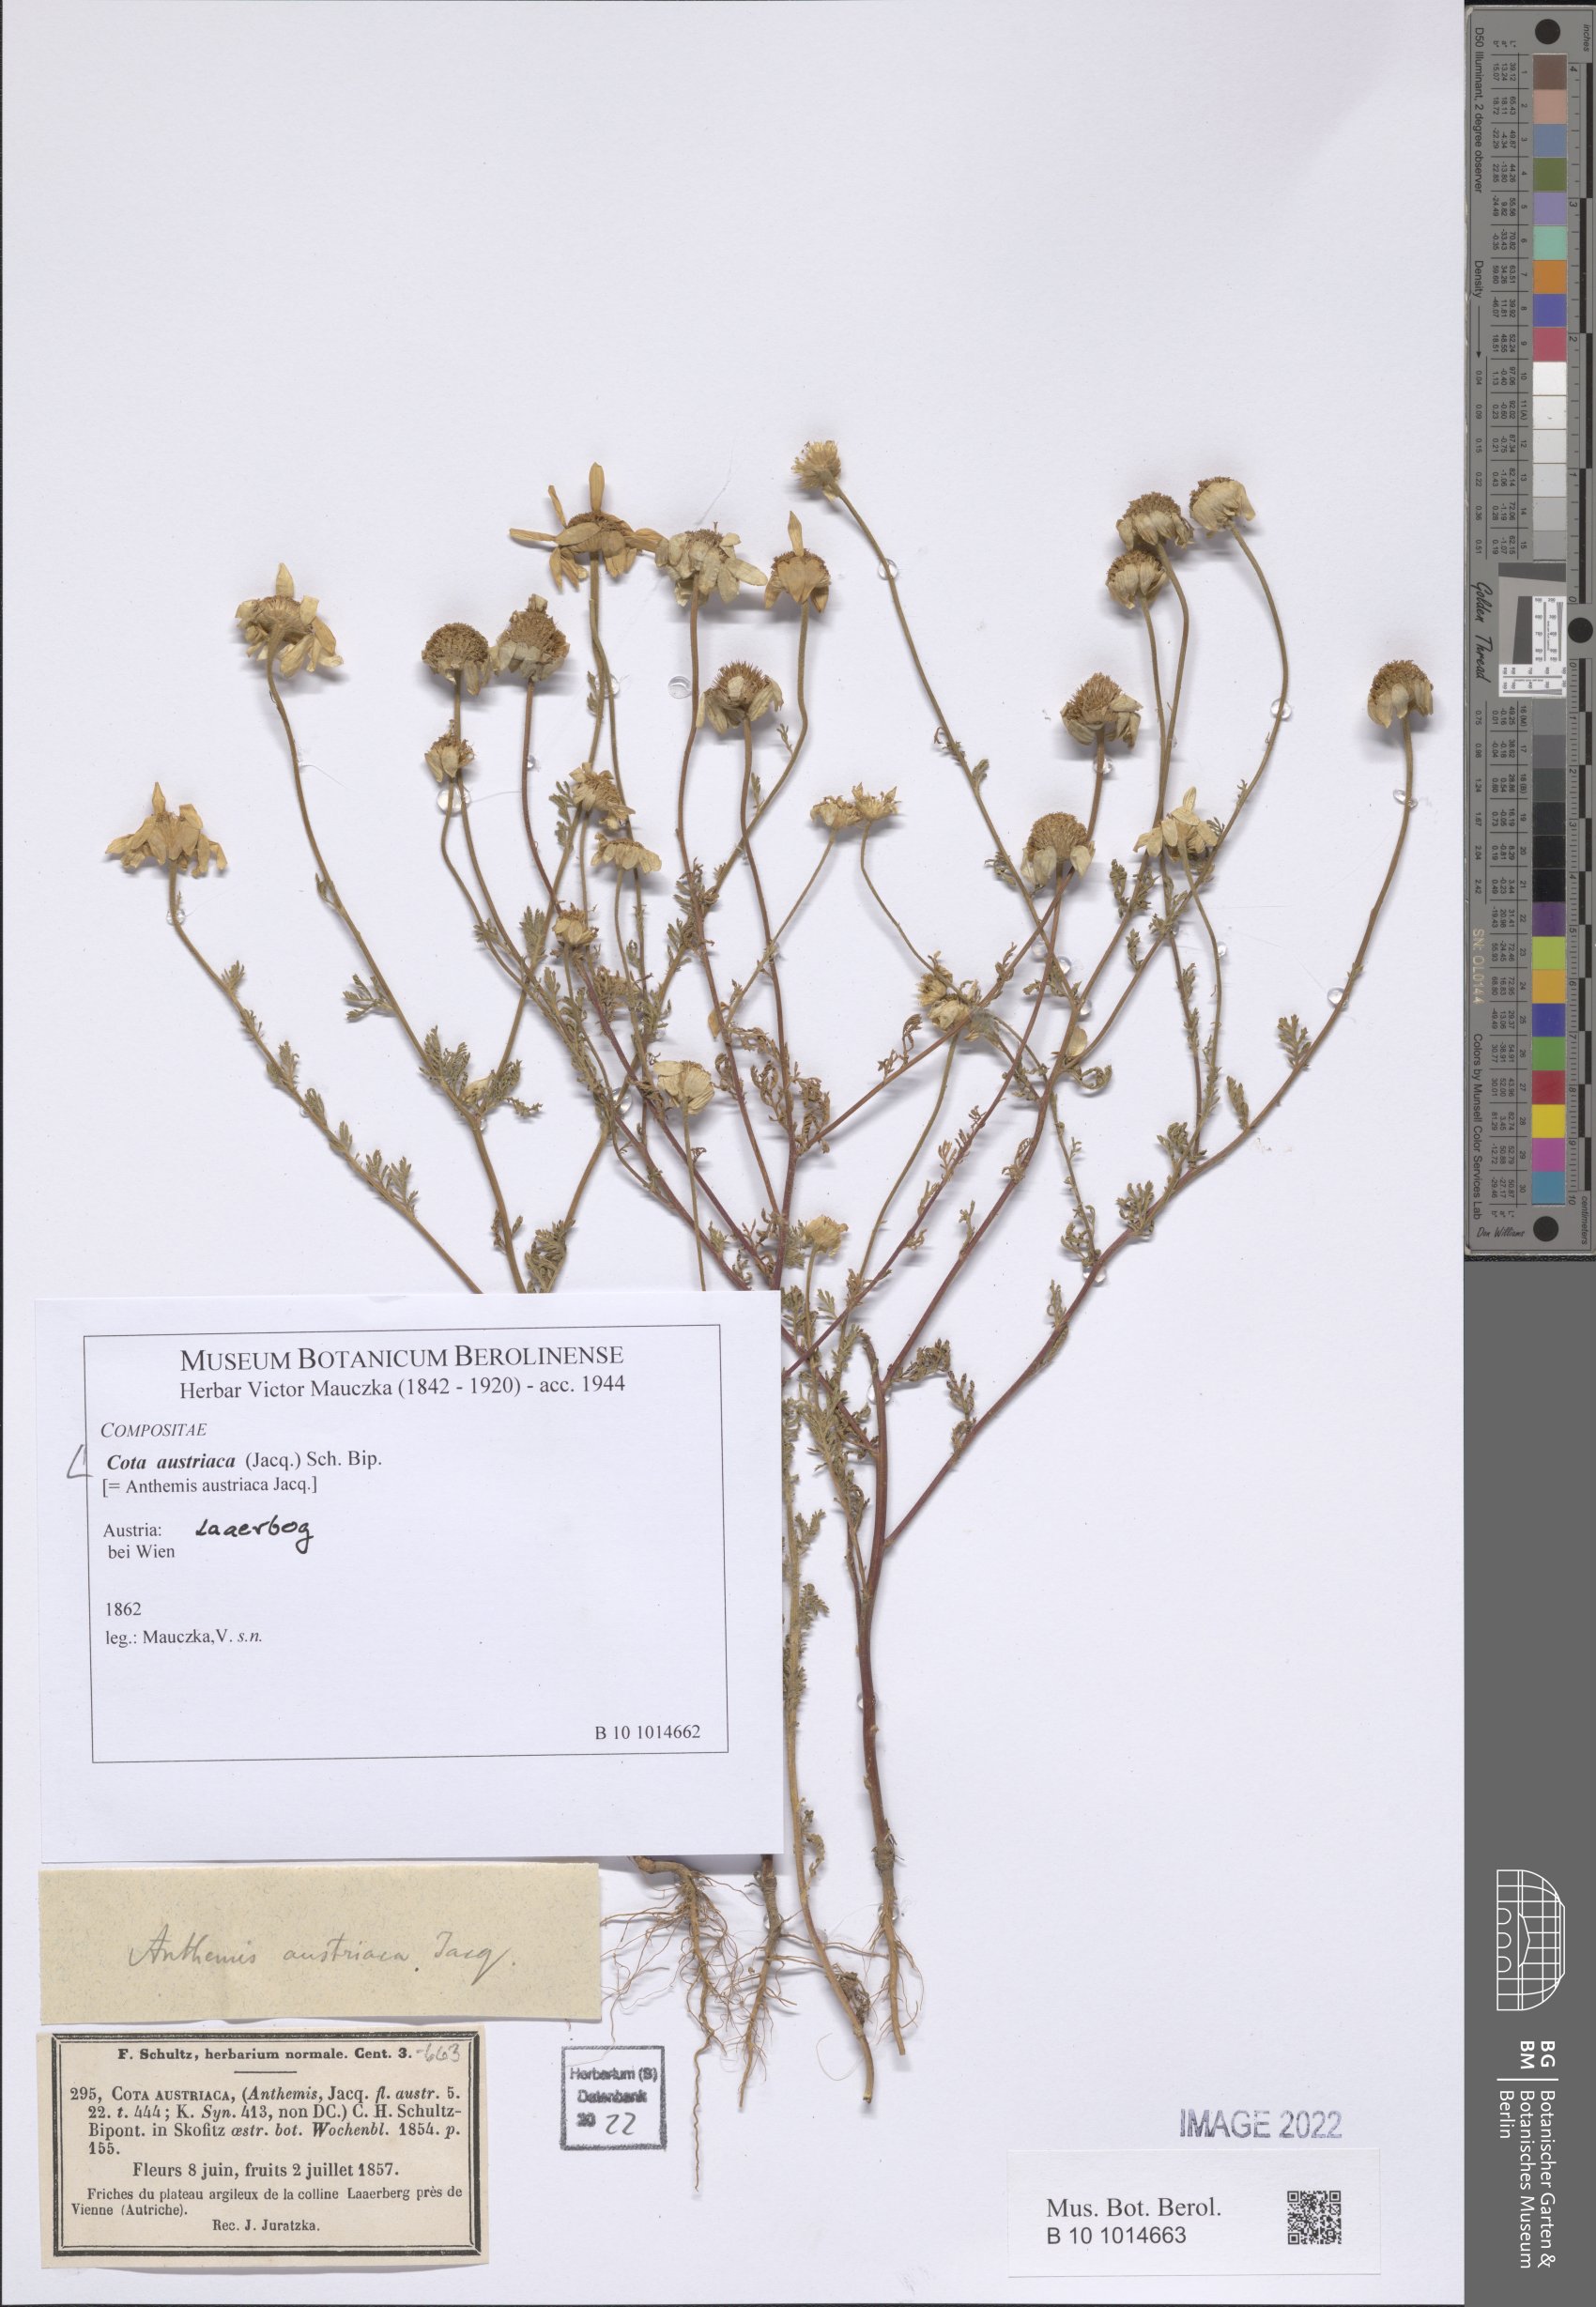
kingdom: Plantae
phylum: Tracheophyta
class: Magnoliopsida
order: Asterales
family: Asteraceae
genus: Cota
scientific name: Cota austriaca
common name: Austrian chamomile
